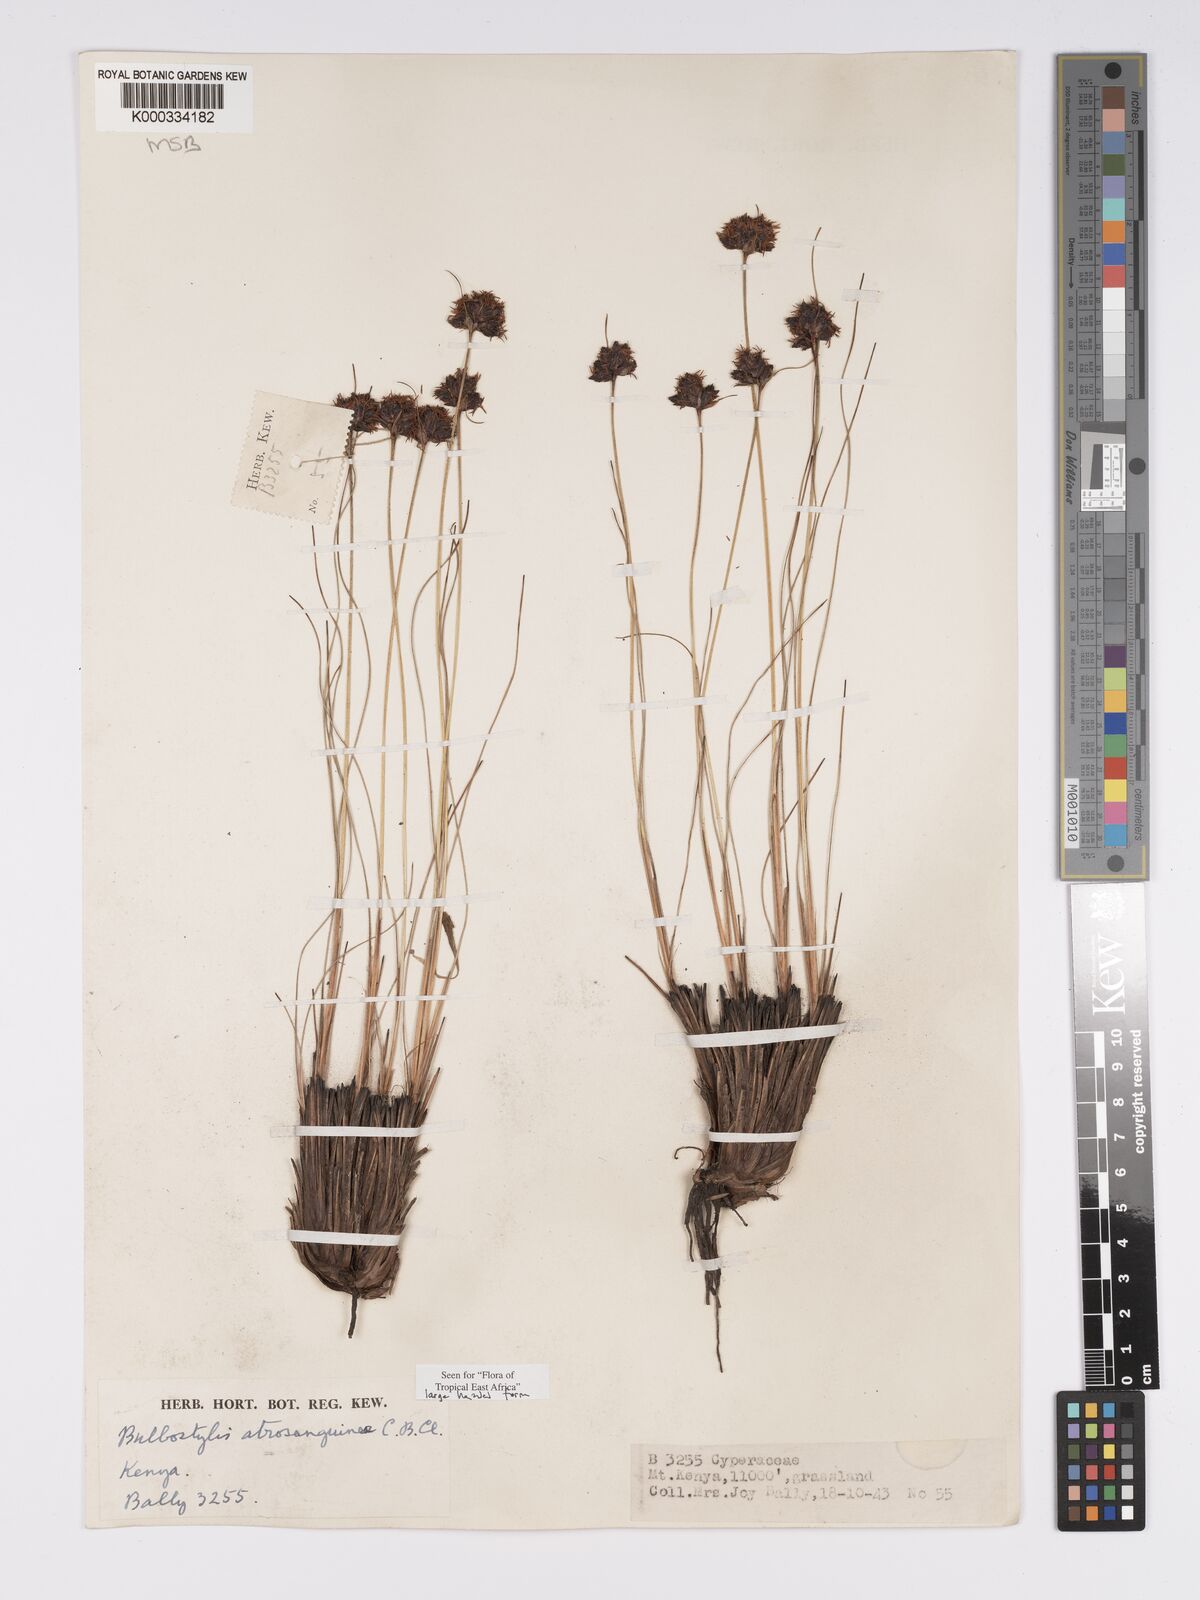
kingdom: Plantae
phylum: Tracheophyta
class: Liliopsida
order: Poales
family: Cyperaceae
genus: Bulbostylis
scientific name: Bulbostylis atrosanguinea
